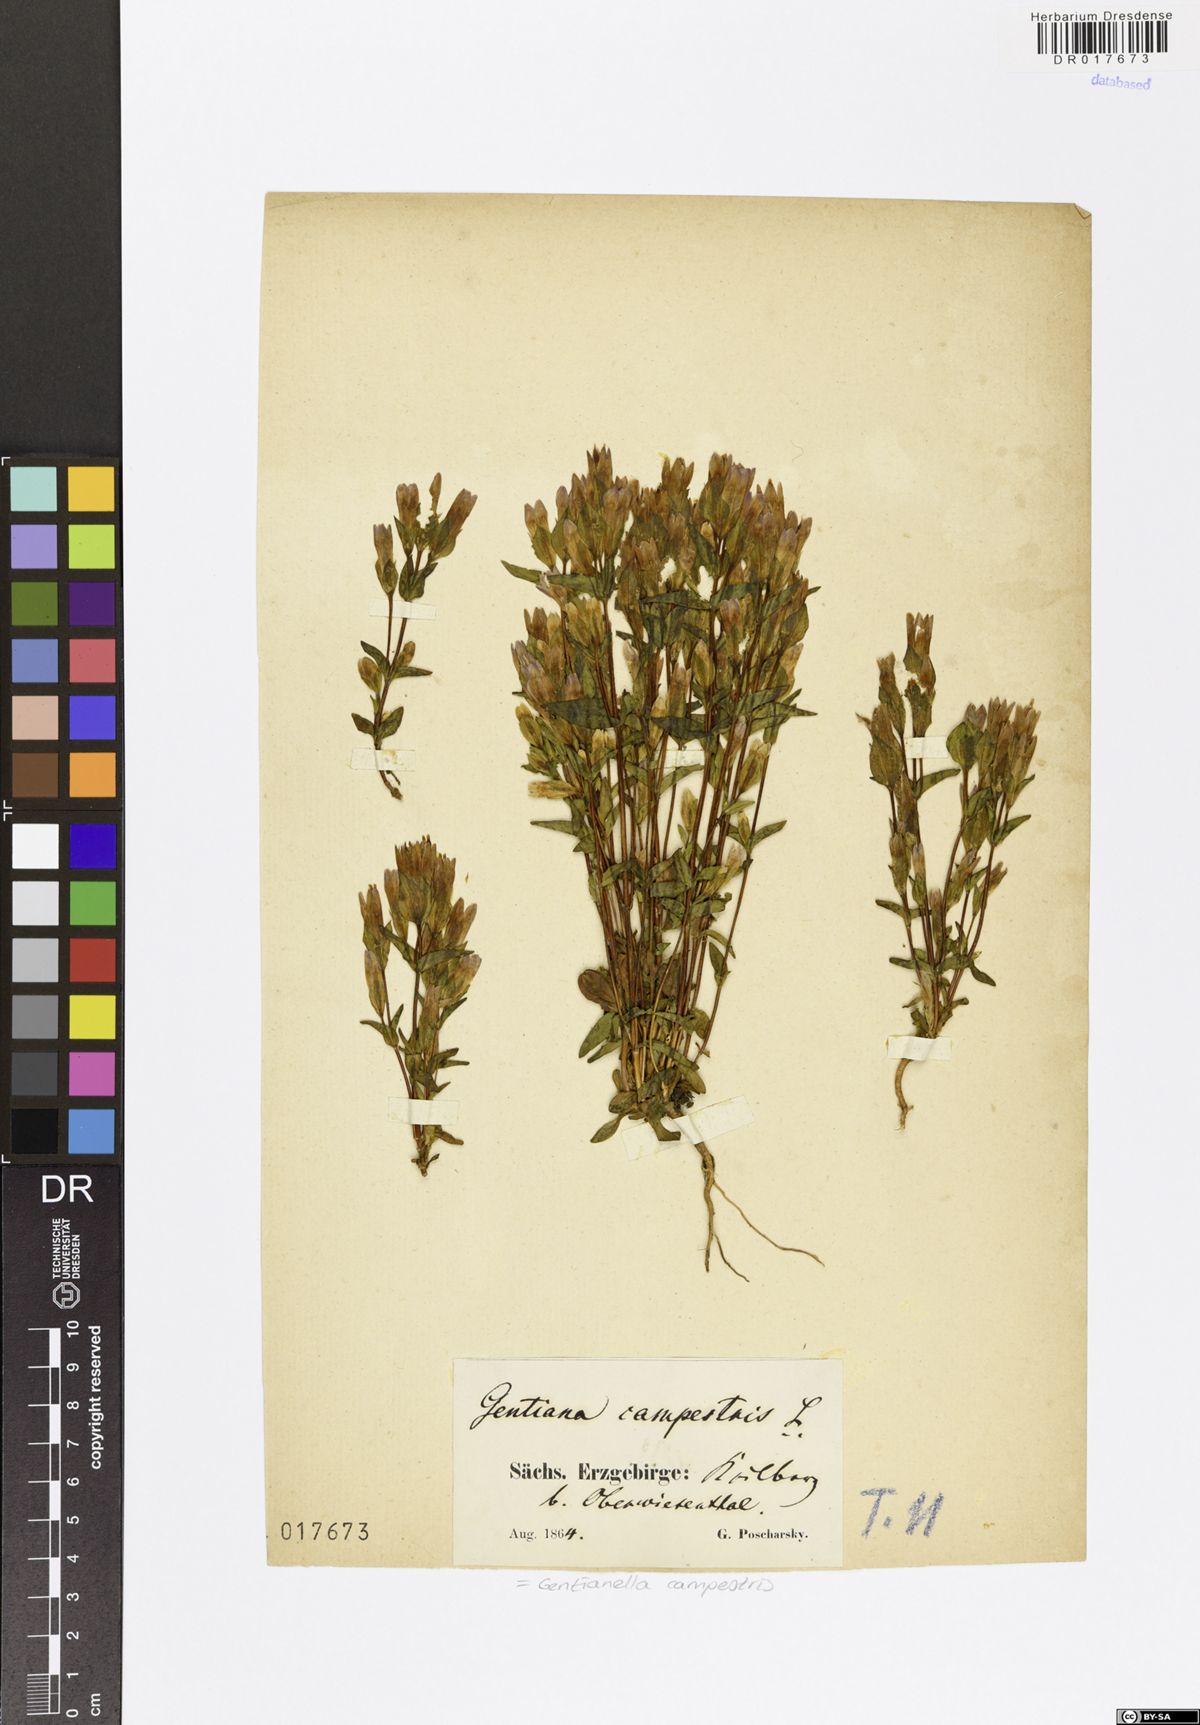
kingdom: Plantae
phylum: Tracheophyta
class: Magnoliopsida
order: Gentianales
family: Gentianaceae
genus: Gentianella
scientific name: Gentianella campestris
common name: Field gentian
